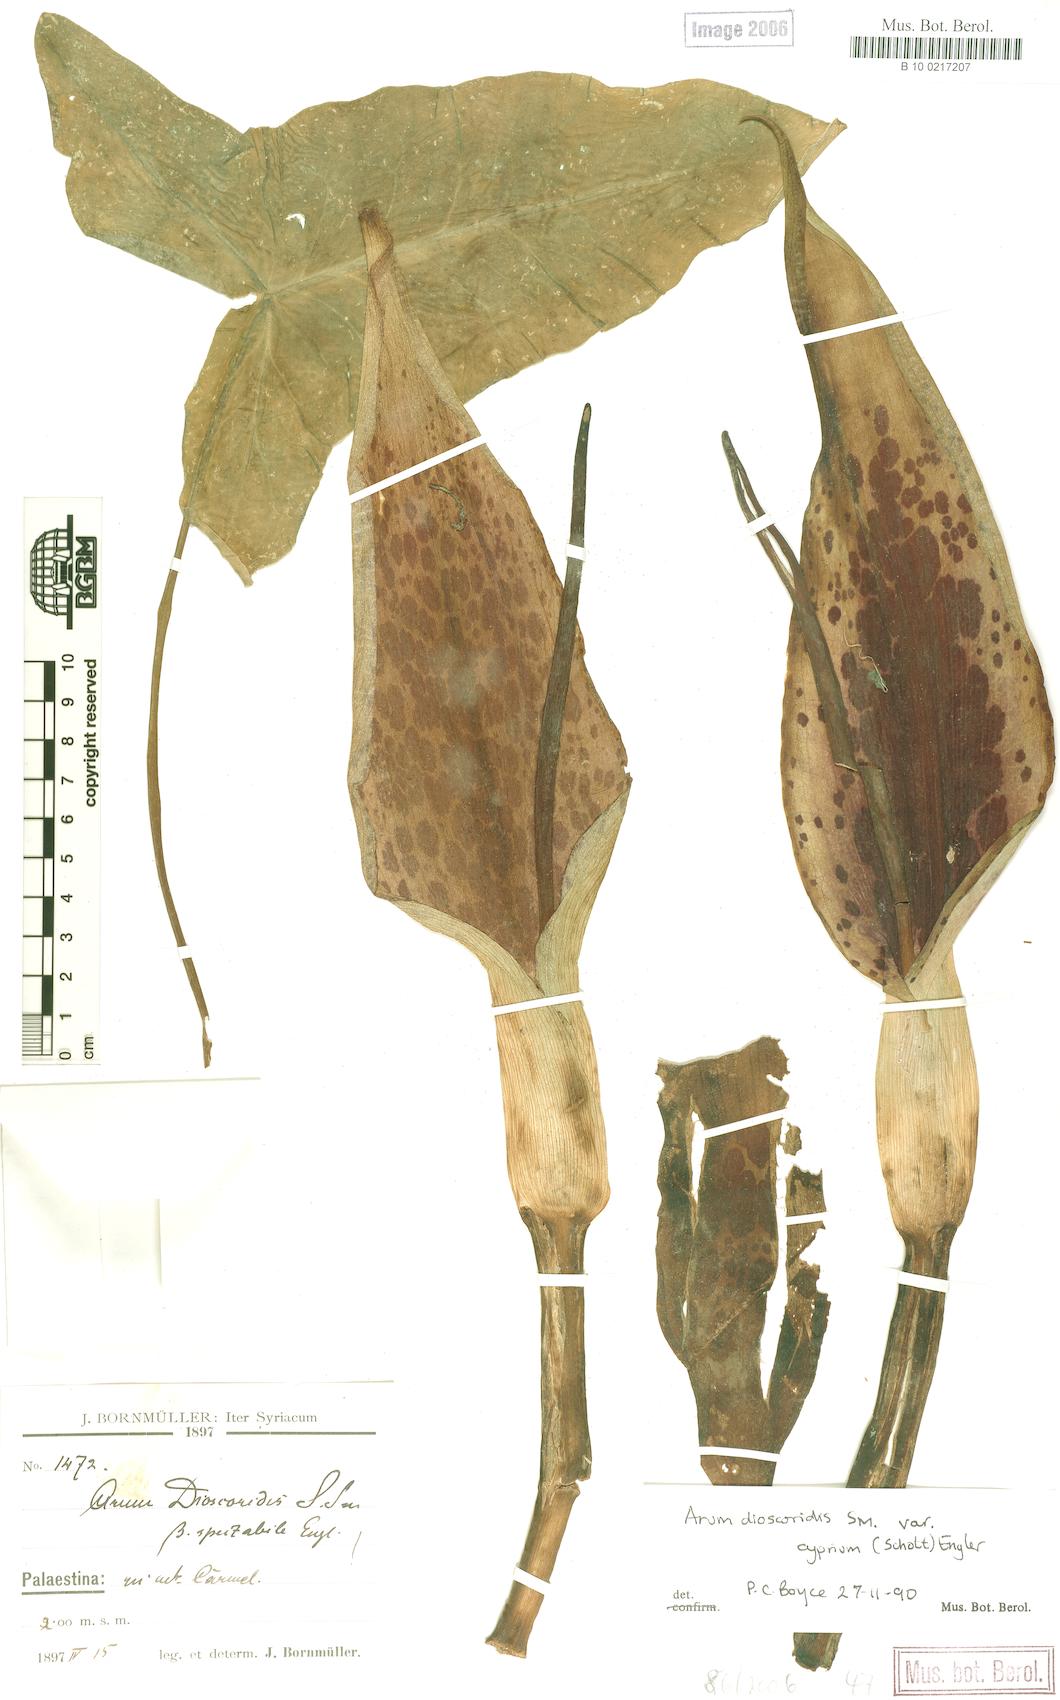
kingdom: Plantae
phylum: Tracheophyta
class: Liliopsida
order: Alismatales
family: Araceae
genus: Arum
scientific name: Arum dioscoridis
